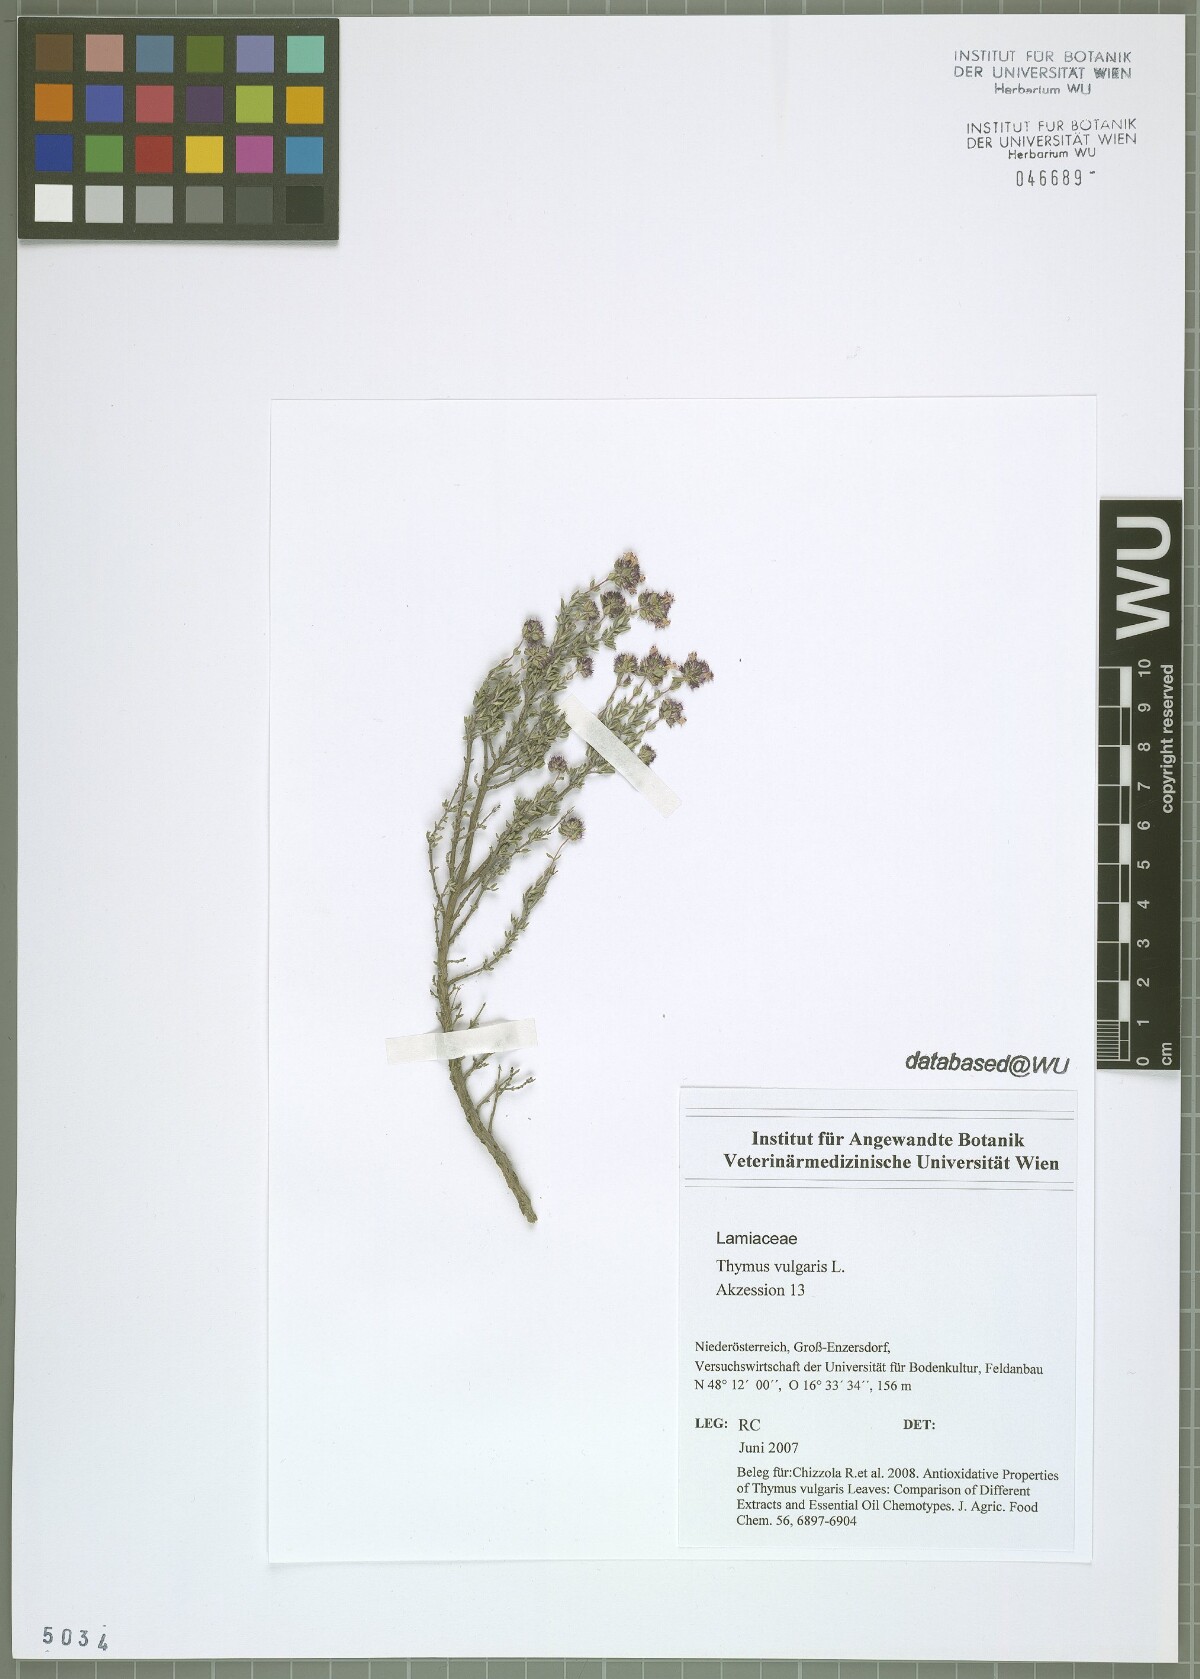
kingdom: Plantae
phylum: Tracheophyta
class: Magnoliopsida
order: Lamiales
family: Lamiaceae
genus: Thymus
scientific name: Thymus vulgaris
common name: Garden thyme
